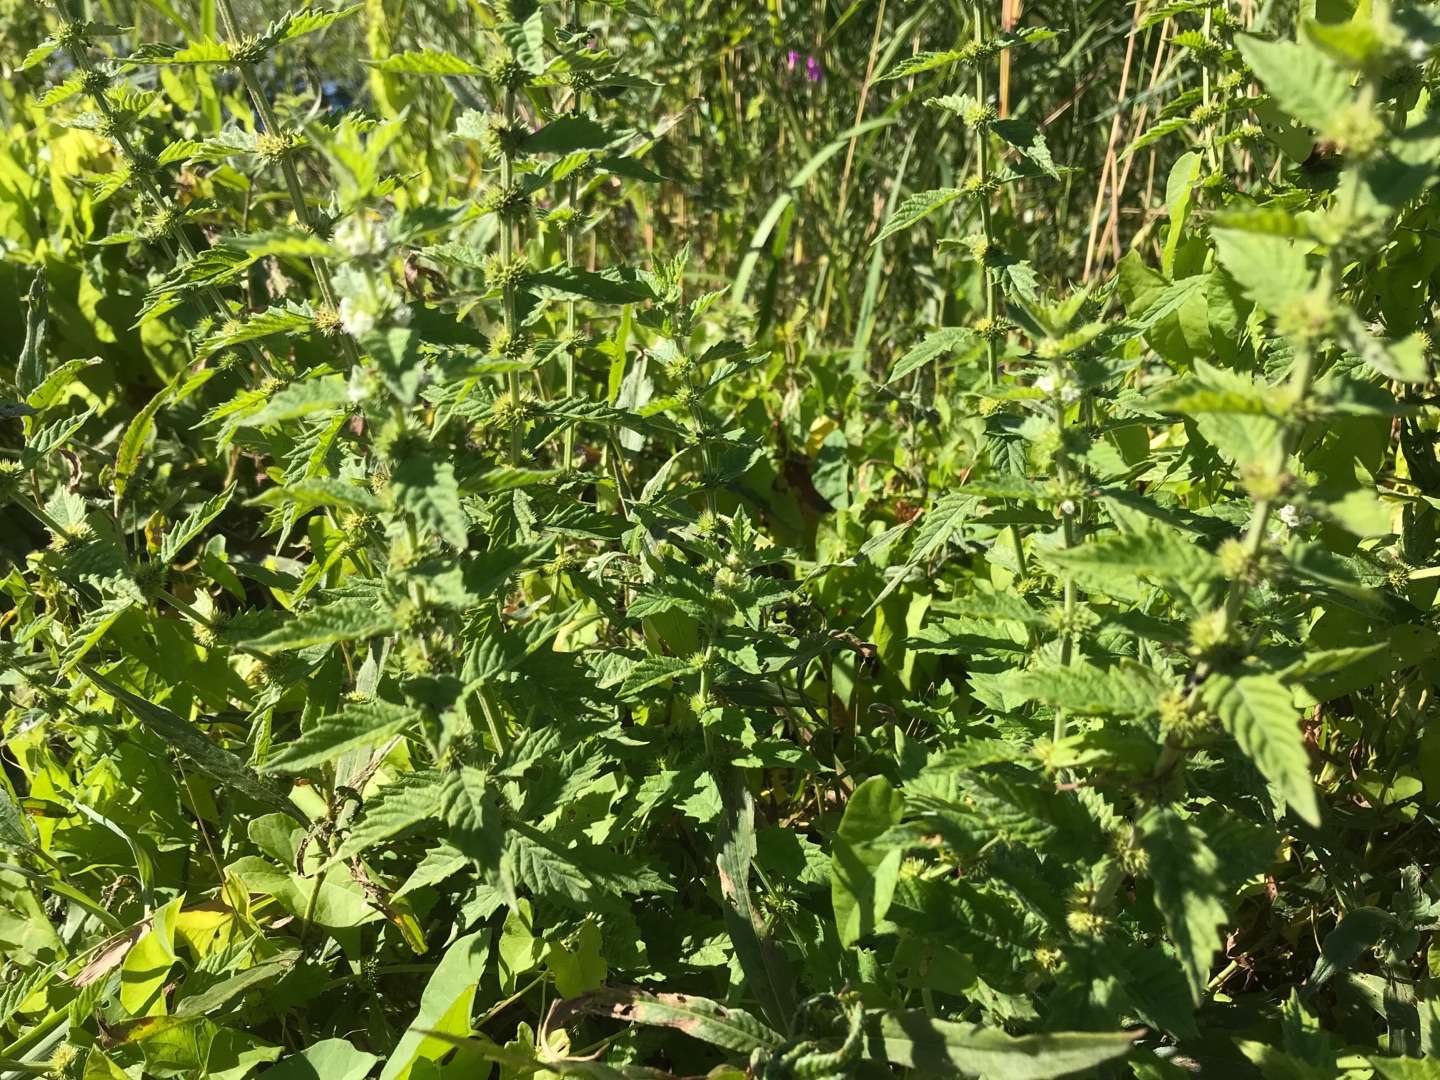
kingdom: Plantae
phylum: Tracheophyta
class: Magnoliopsida
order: Lamiales
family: Lamiaceae
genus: Lycopus
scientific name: Lycopus europaeus
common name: Sværtevæld
